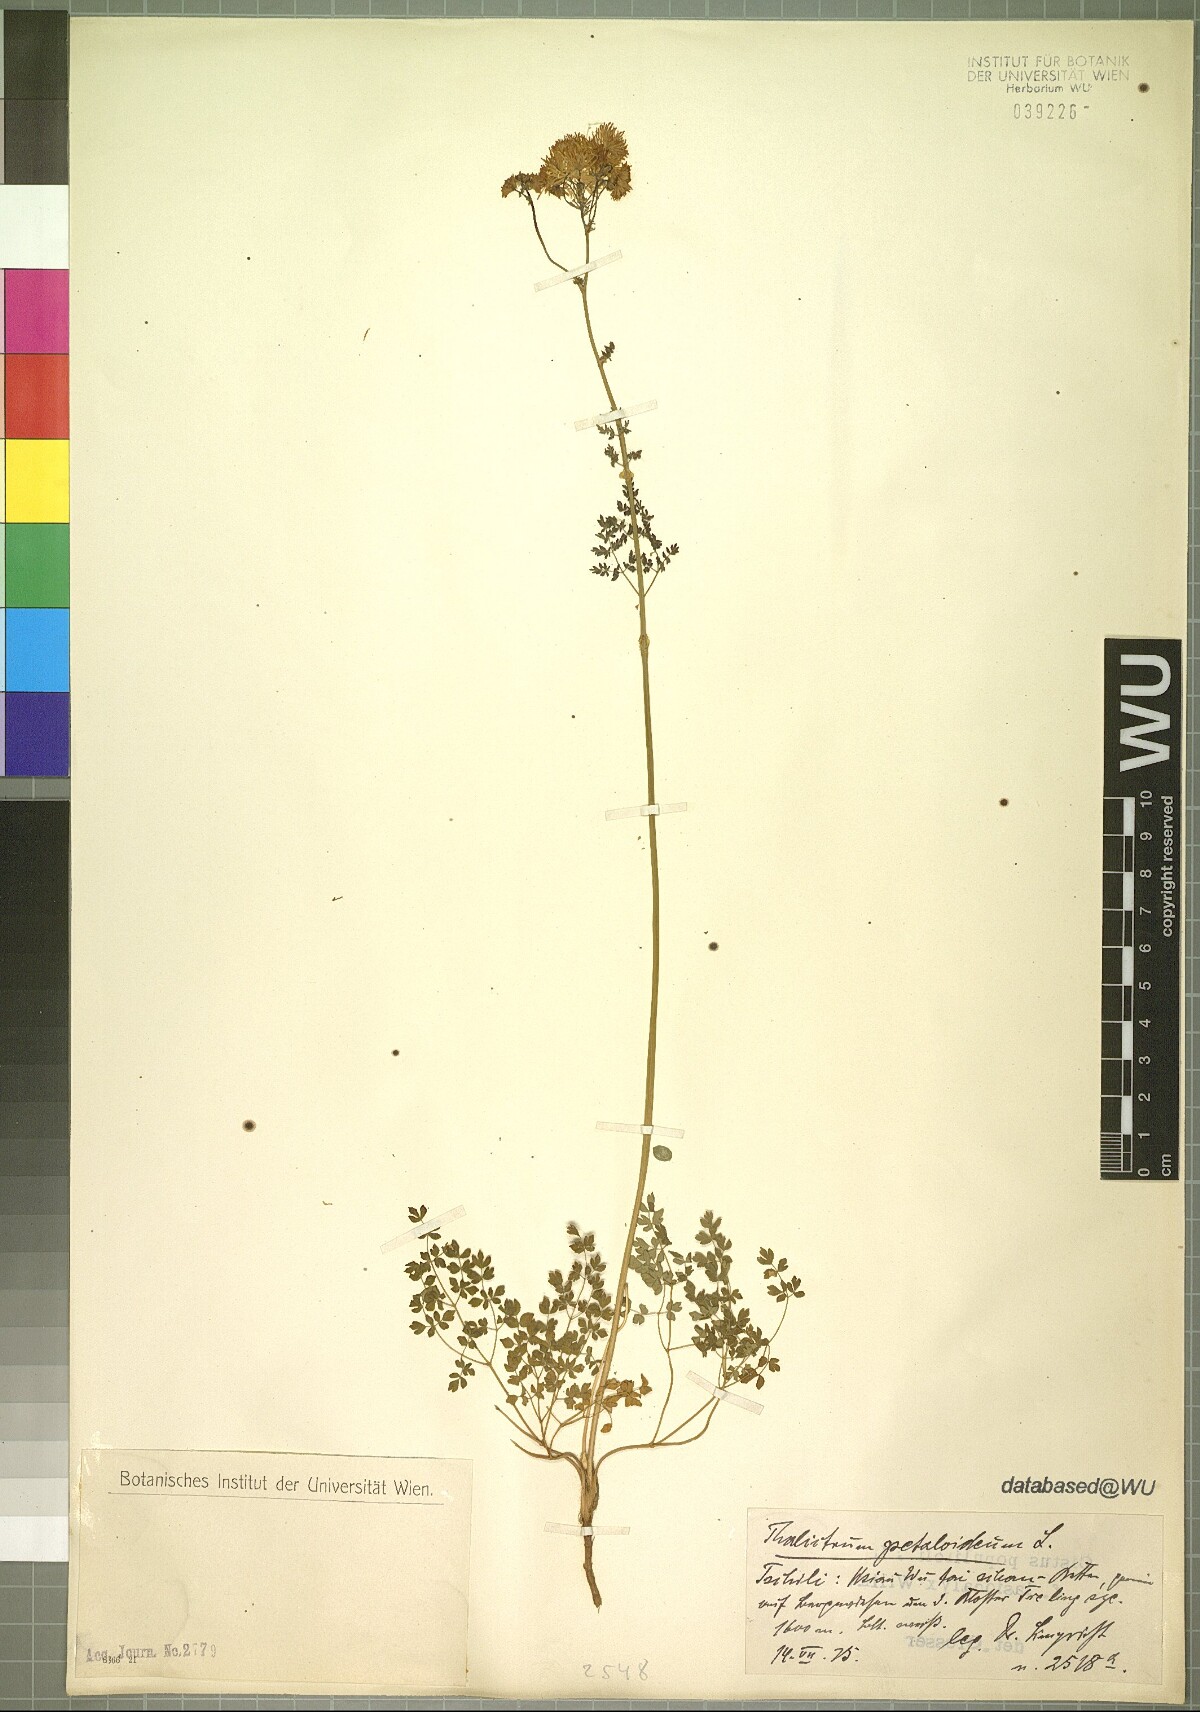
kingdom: Plantae
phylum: Tracheophyta
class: Magnoliopsida
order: Ranunculales
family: Ranunculaceae
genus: Thalictrum
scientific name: Thalictrum petaloideum
